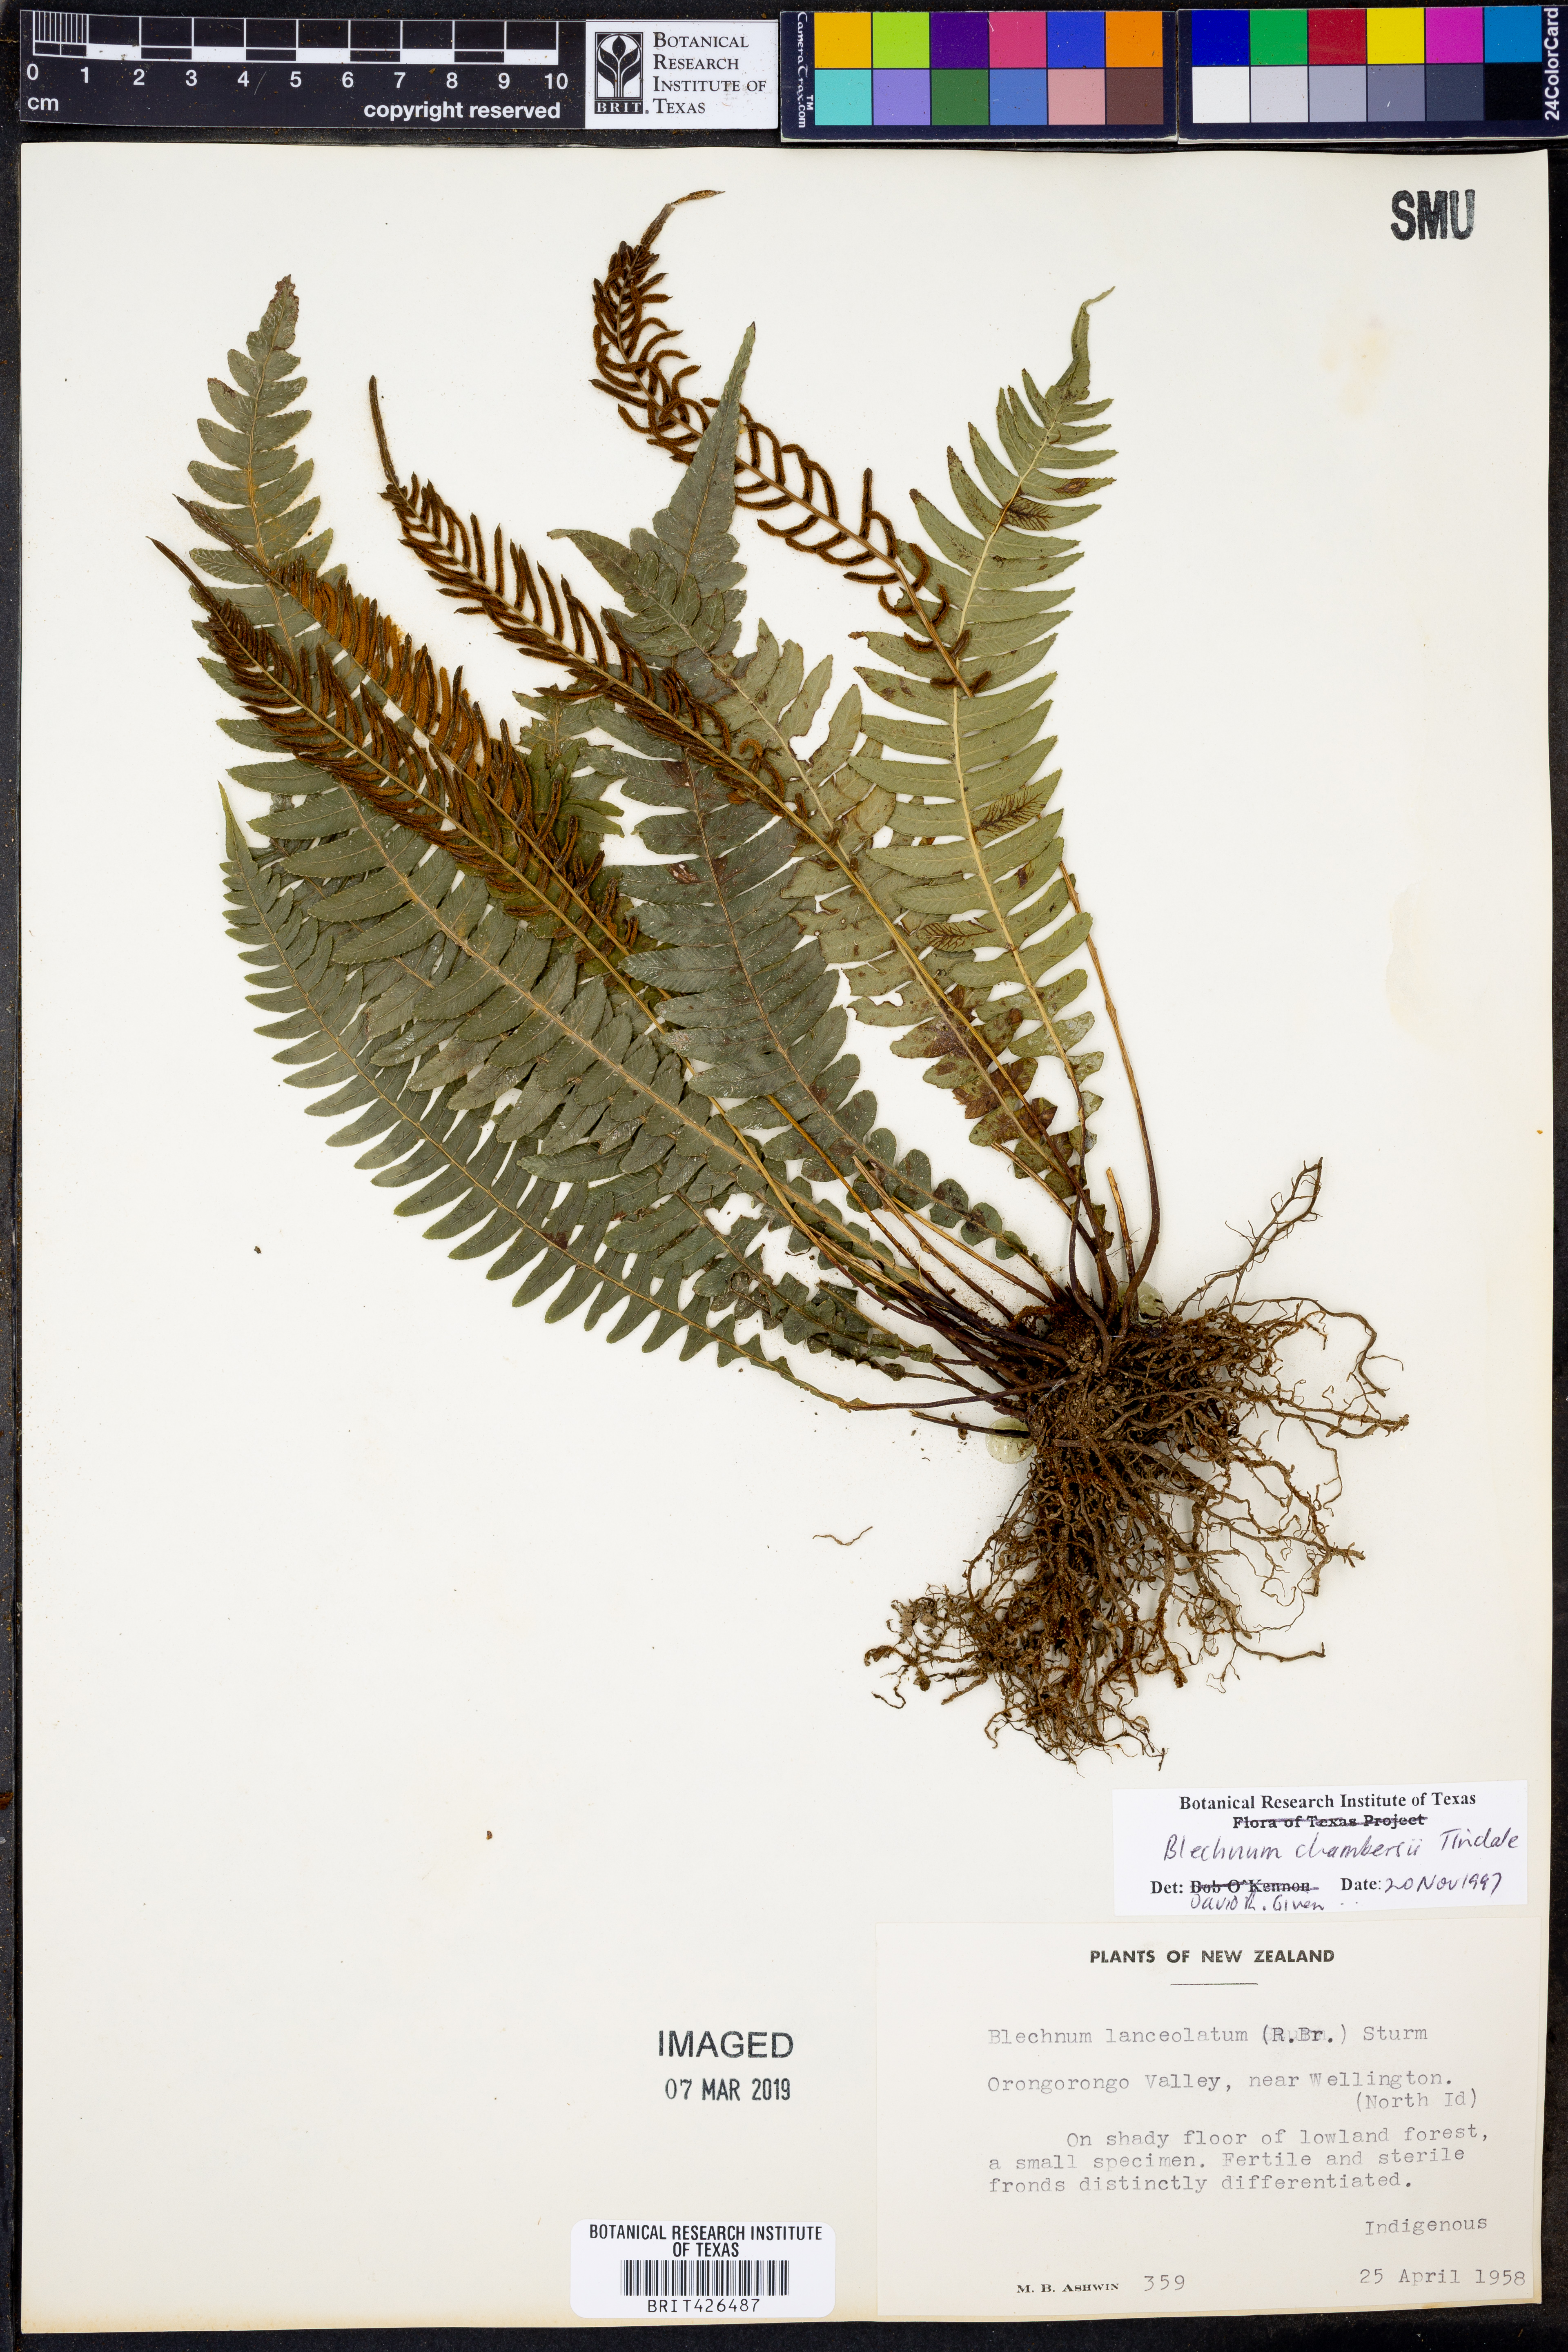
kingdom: Plantae
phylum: Tracheophyta
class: Polypodiopsida
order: Polypodiales
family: Blechnaceae
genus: Austroblechnum
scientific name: Austroblechnum lanceolatum
